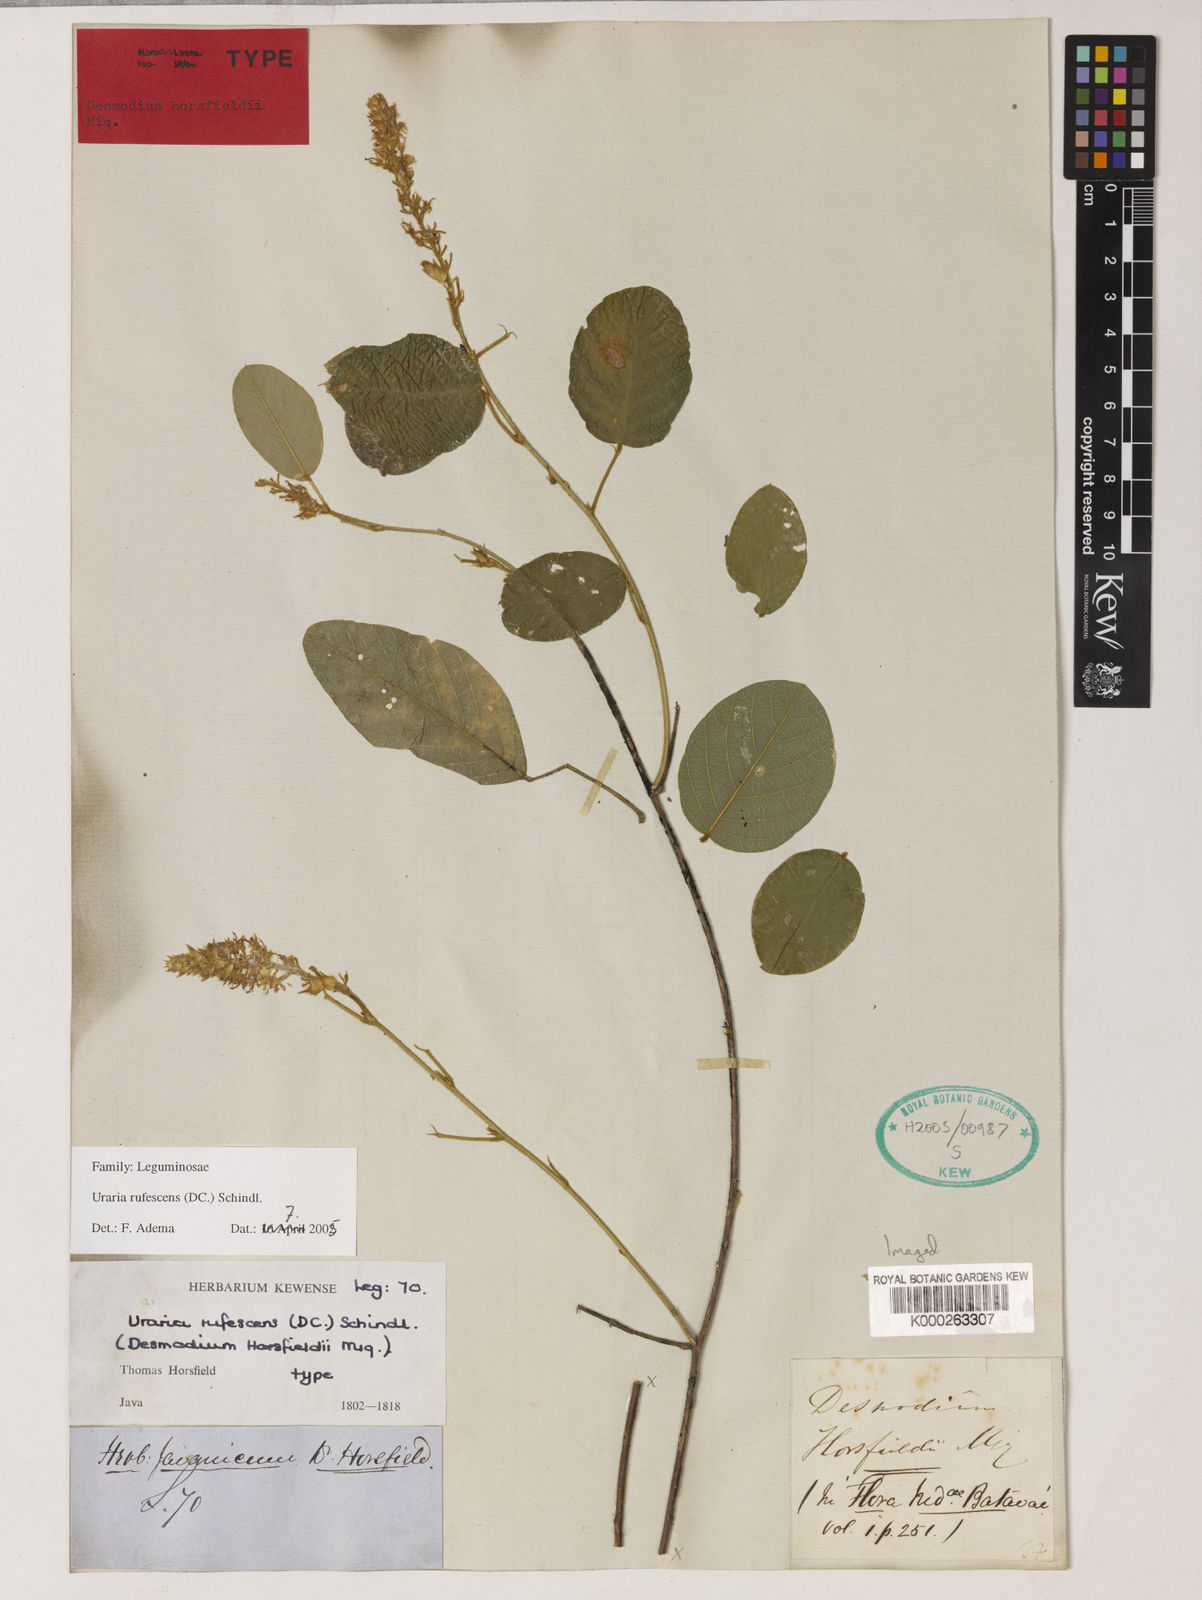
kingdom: Plantae
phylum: Tracheophyta
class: Magnoliopsida
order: Fabales
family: Fabaceae
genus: Uraria
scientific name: Uraria rufescens
